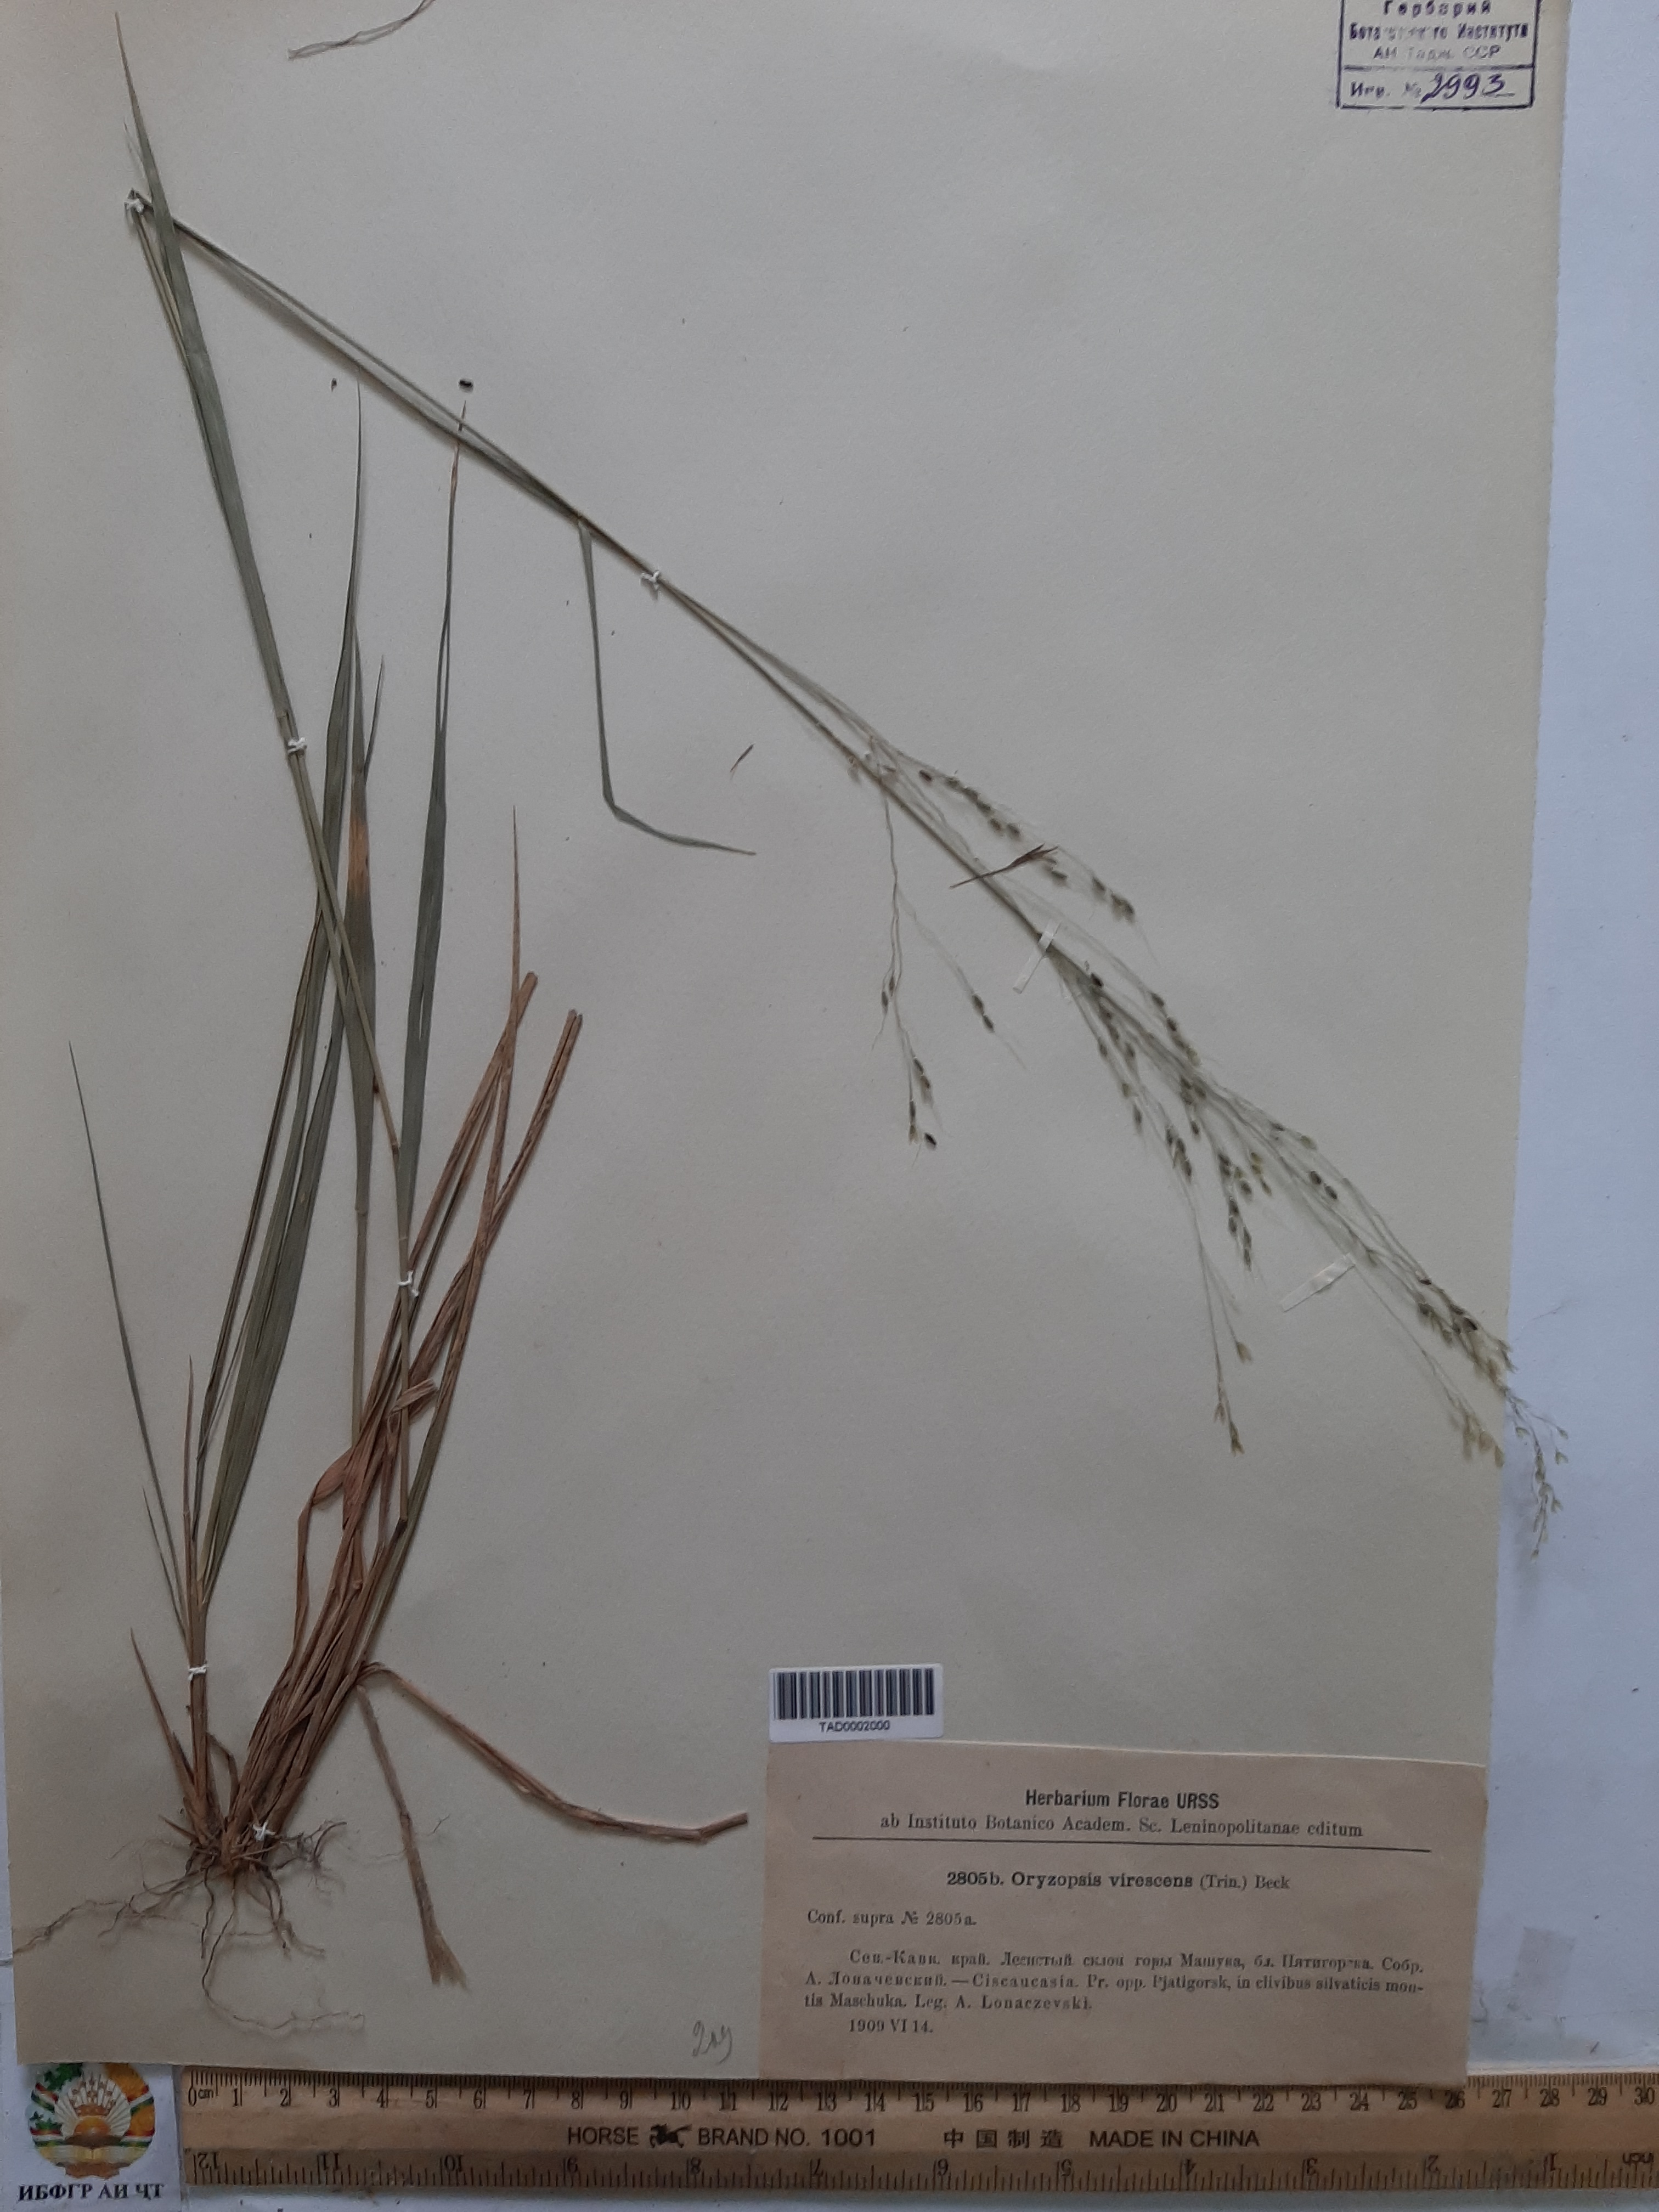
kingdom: Plantae
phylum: Tracheophyta
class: Liliopsida
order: Poales
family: Poaceae
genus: Achnatherum
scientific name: Achnatherum virescens
